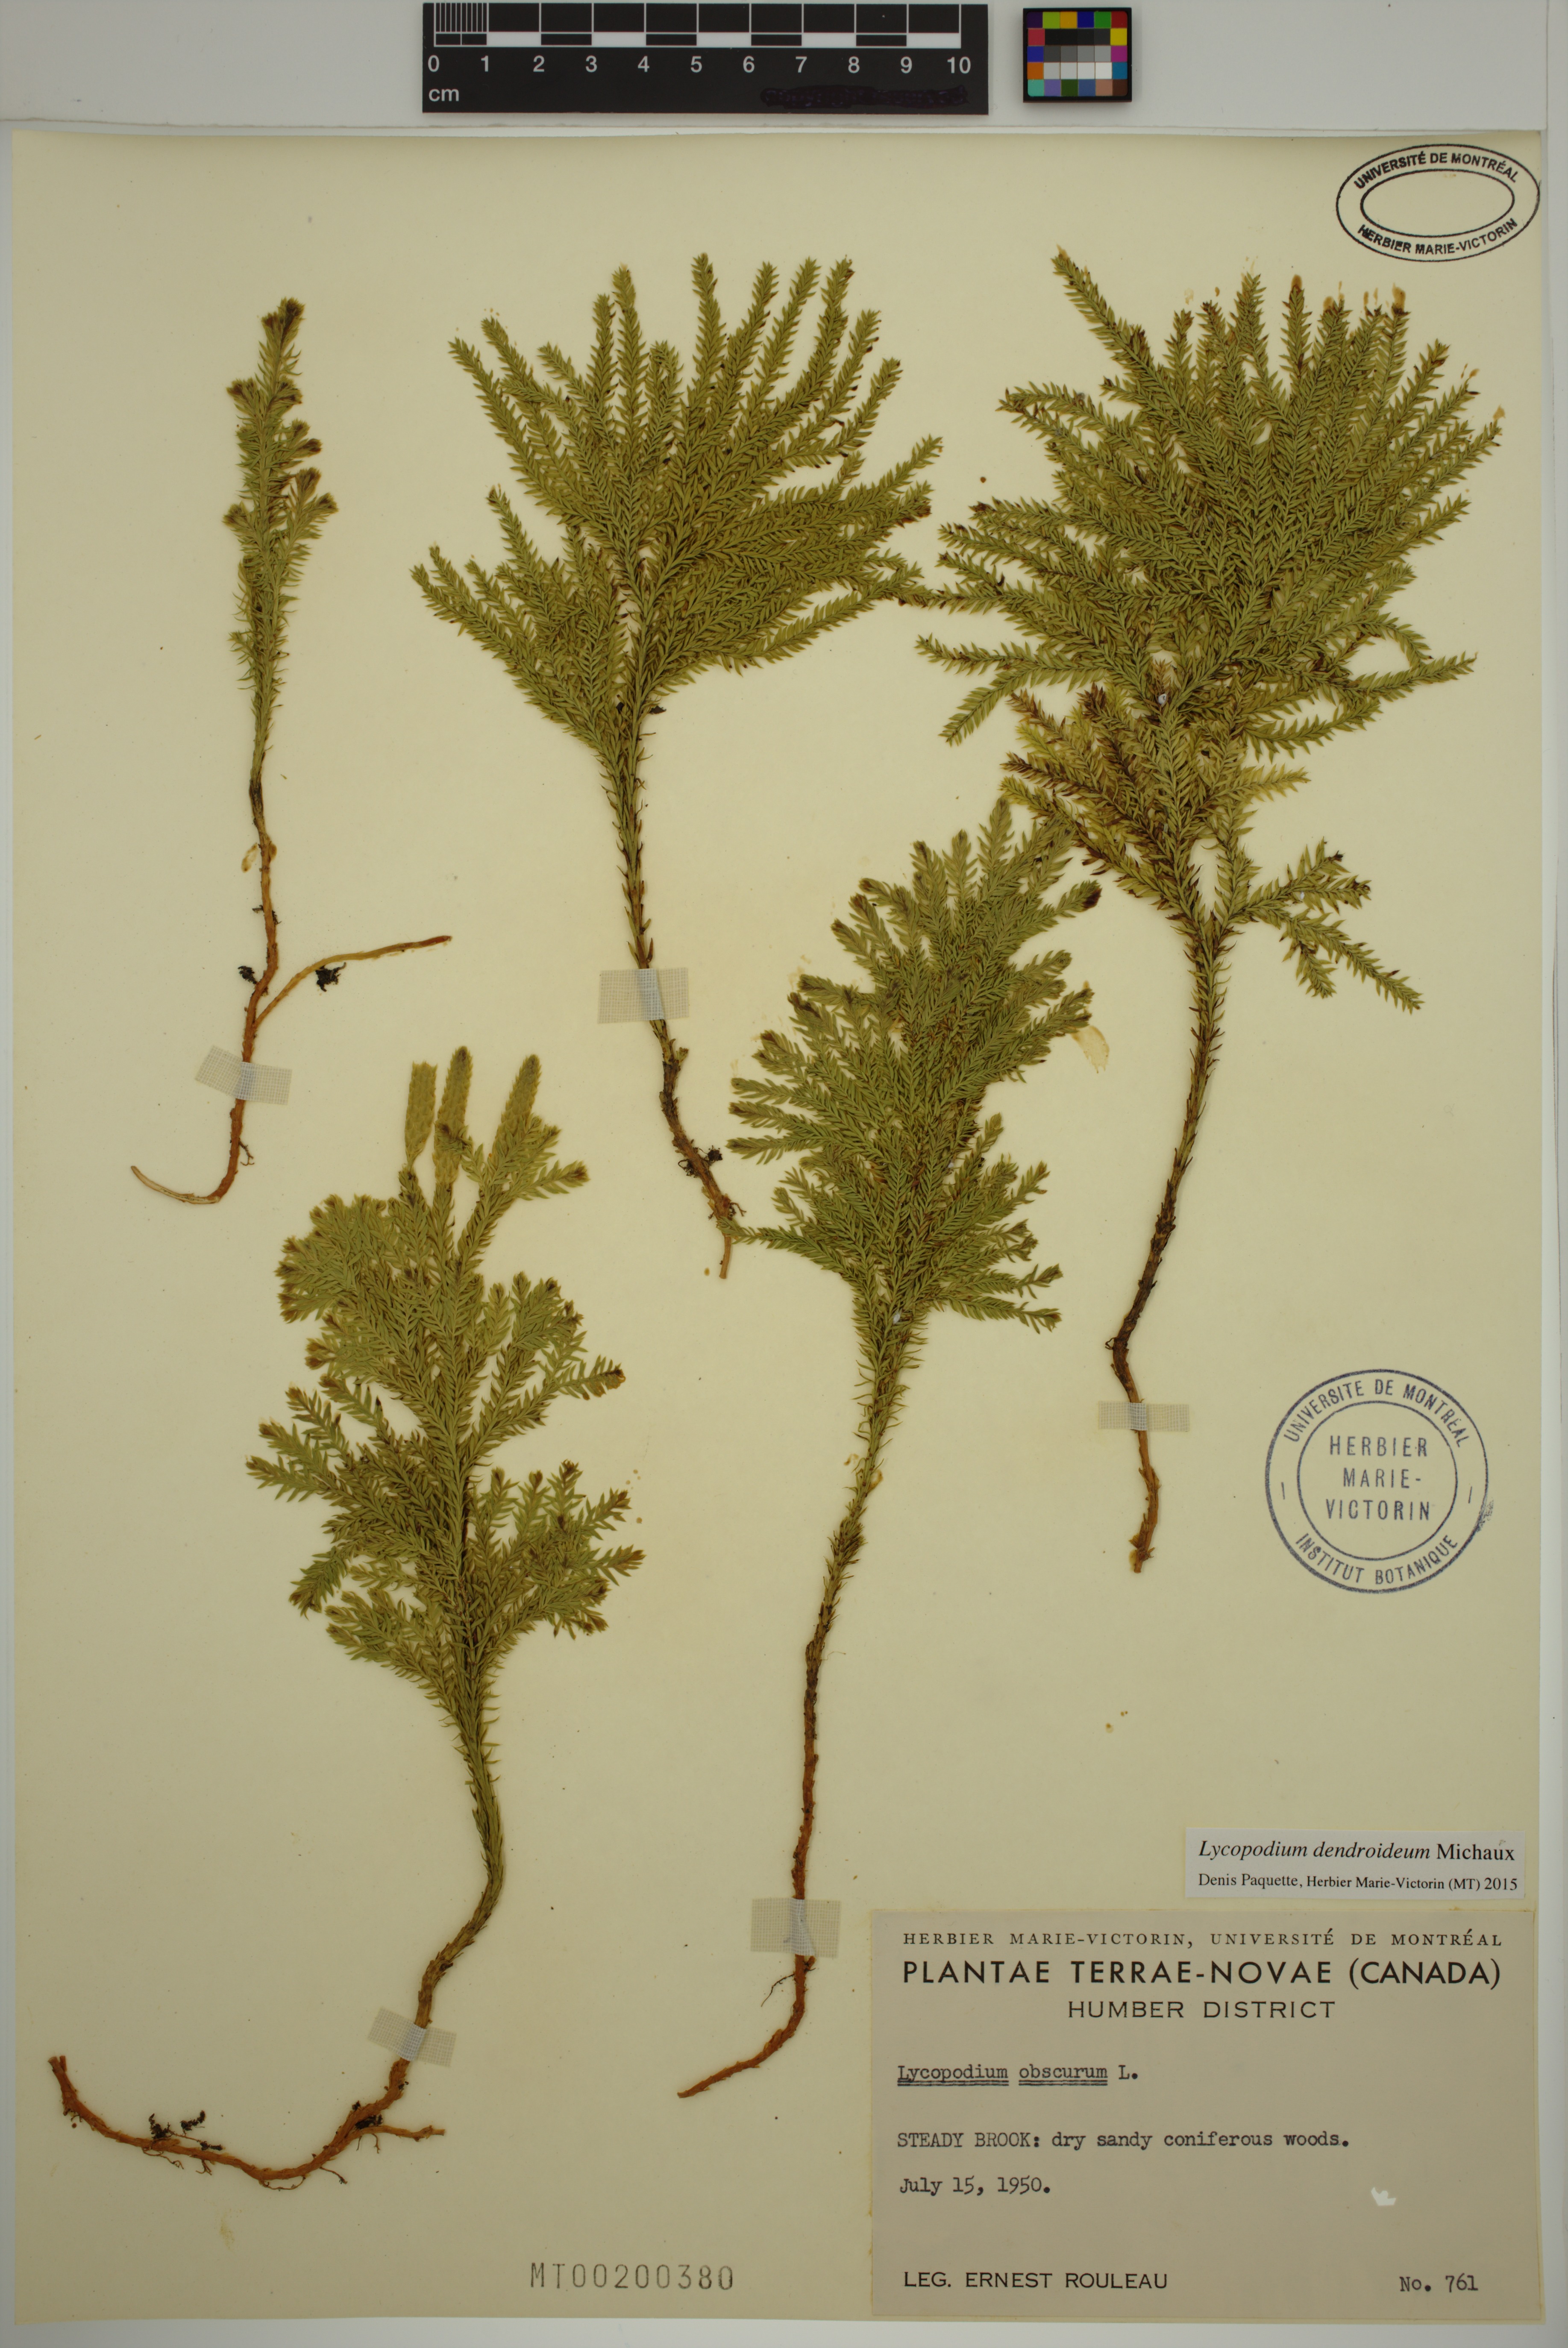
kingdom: Plantae
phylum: Tracheophyta
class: Lycopodiopsida
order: Lycopodiales
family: Lycopodiaceae
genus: Dendrolycopodium
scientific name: Dendrolycopodium dendroideum
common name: Northern tree-clubmoss
